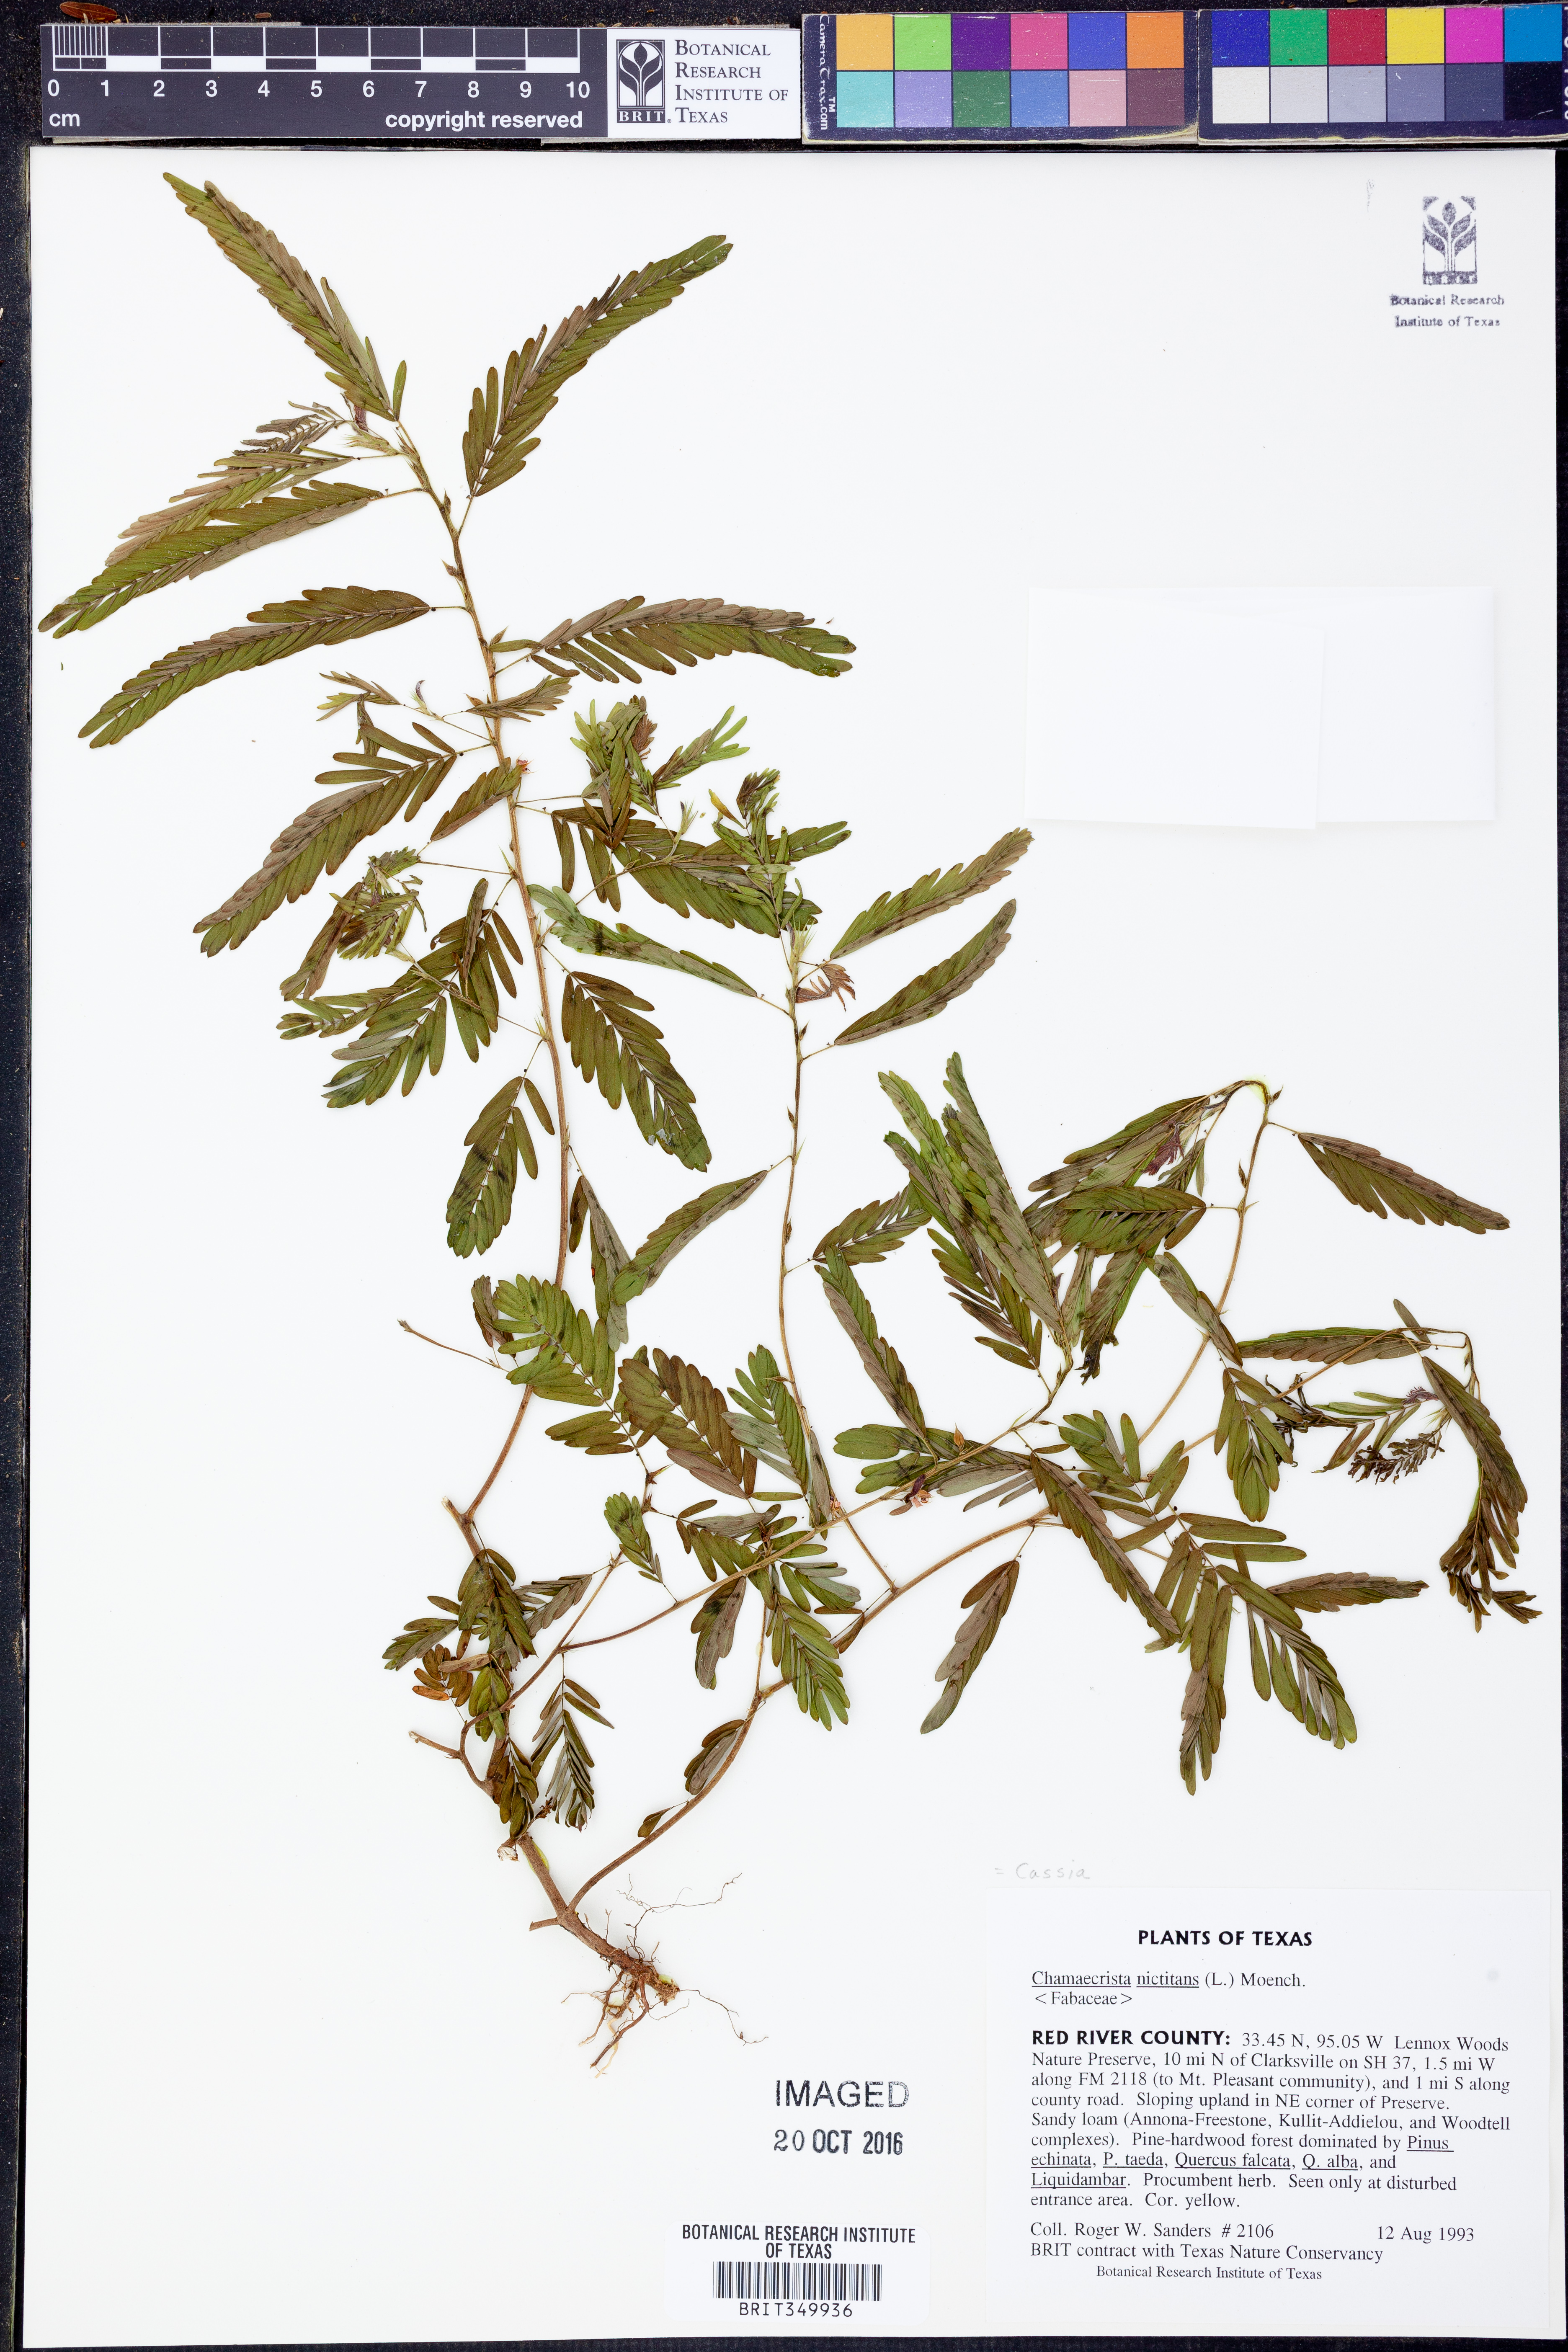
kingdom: Plantae
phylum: Tracheophyta
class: Magnoliopsida
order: Fabales
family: Fabaceae
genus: Chamaecrista
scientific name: Chamaecrista nictitans
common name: Sensitive cassia
